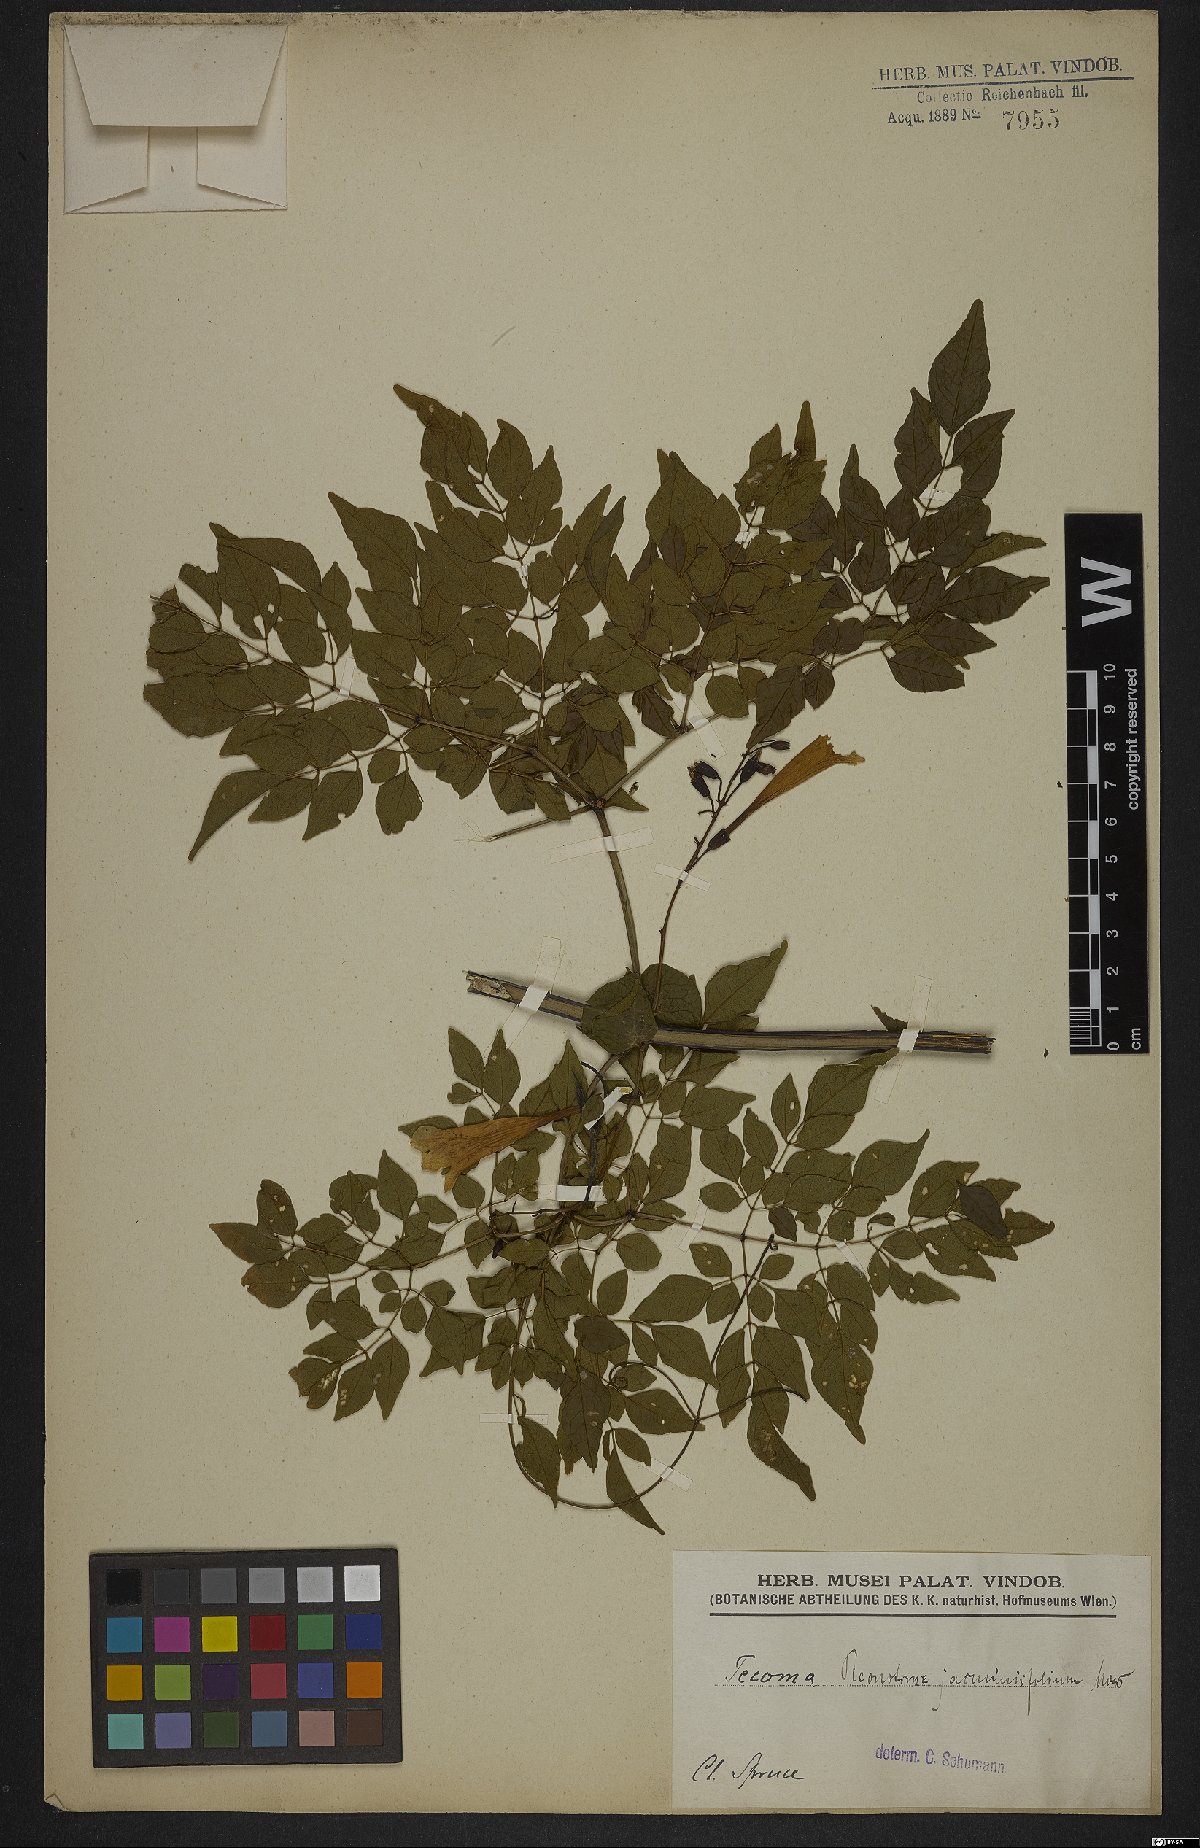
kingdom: Plantae
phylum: Tracheophyta
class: Magnoliopsida
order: Lamiales
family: Bignoniaceae
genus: Pleonotoma
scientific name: Pleonotoma jasminifolia
